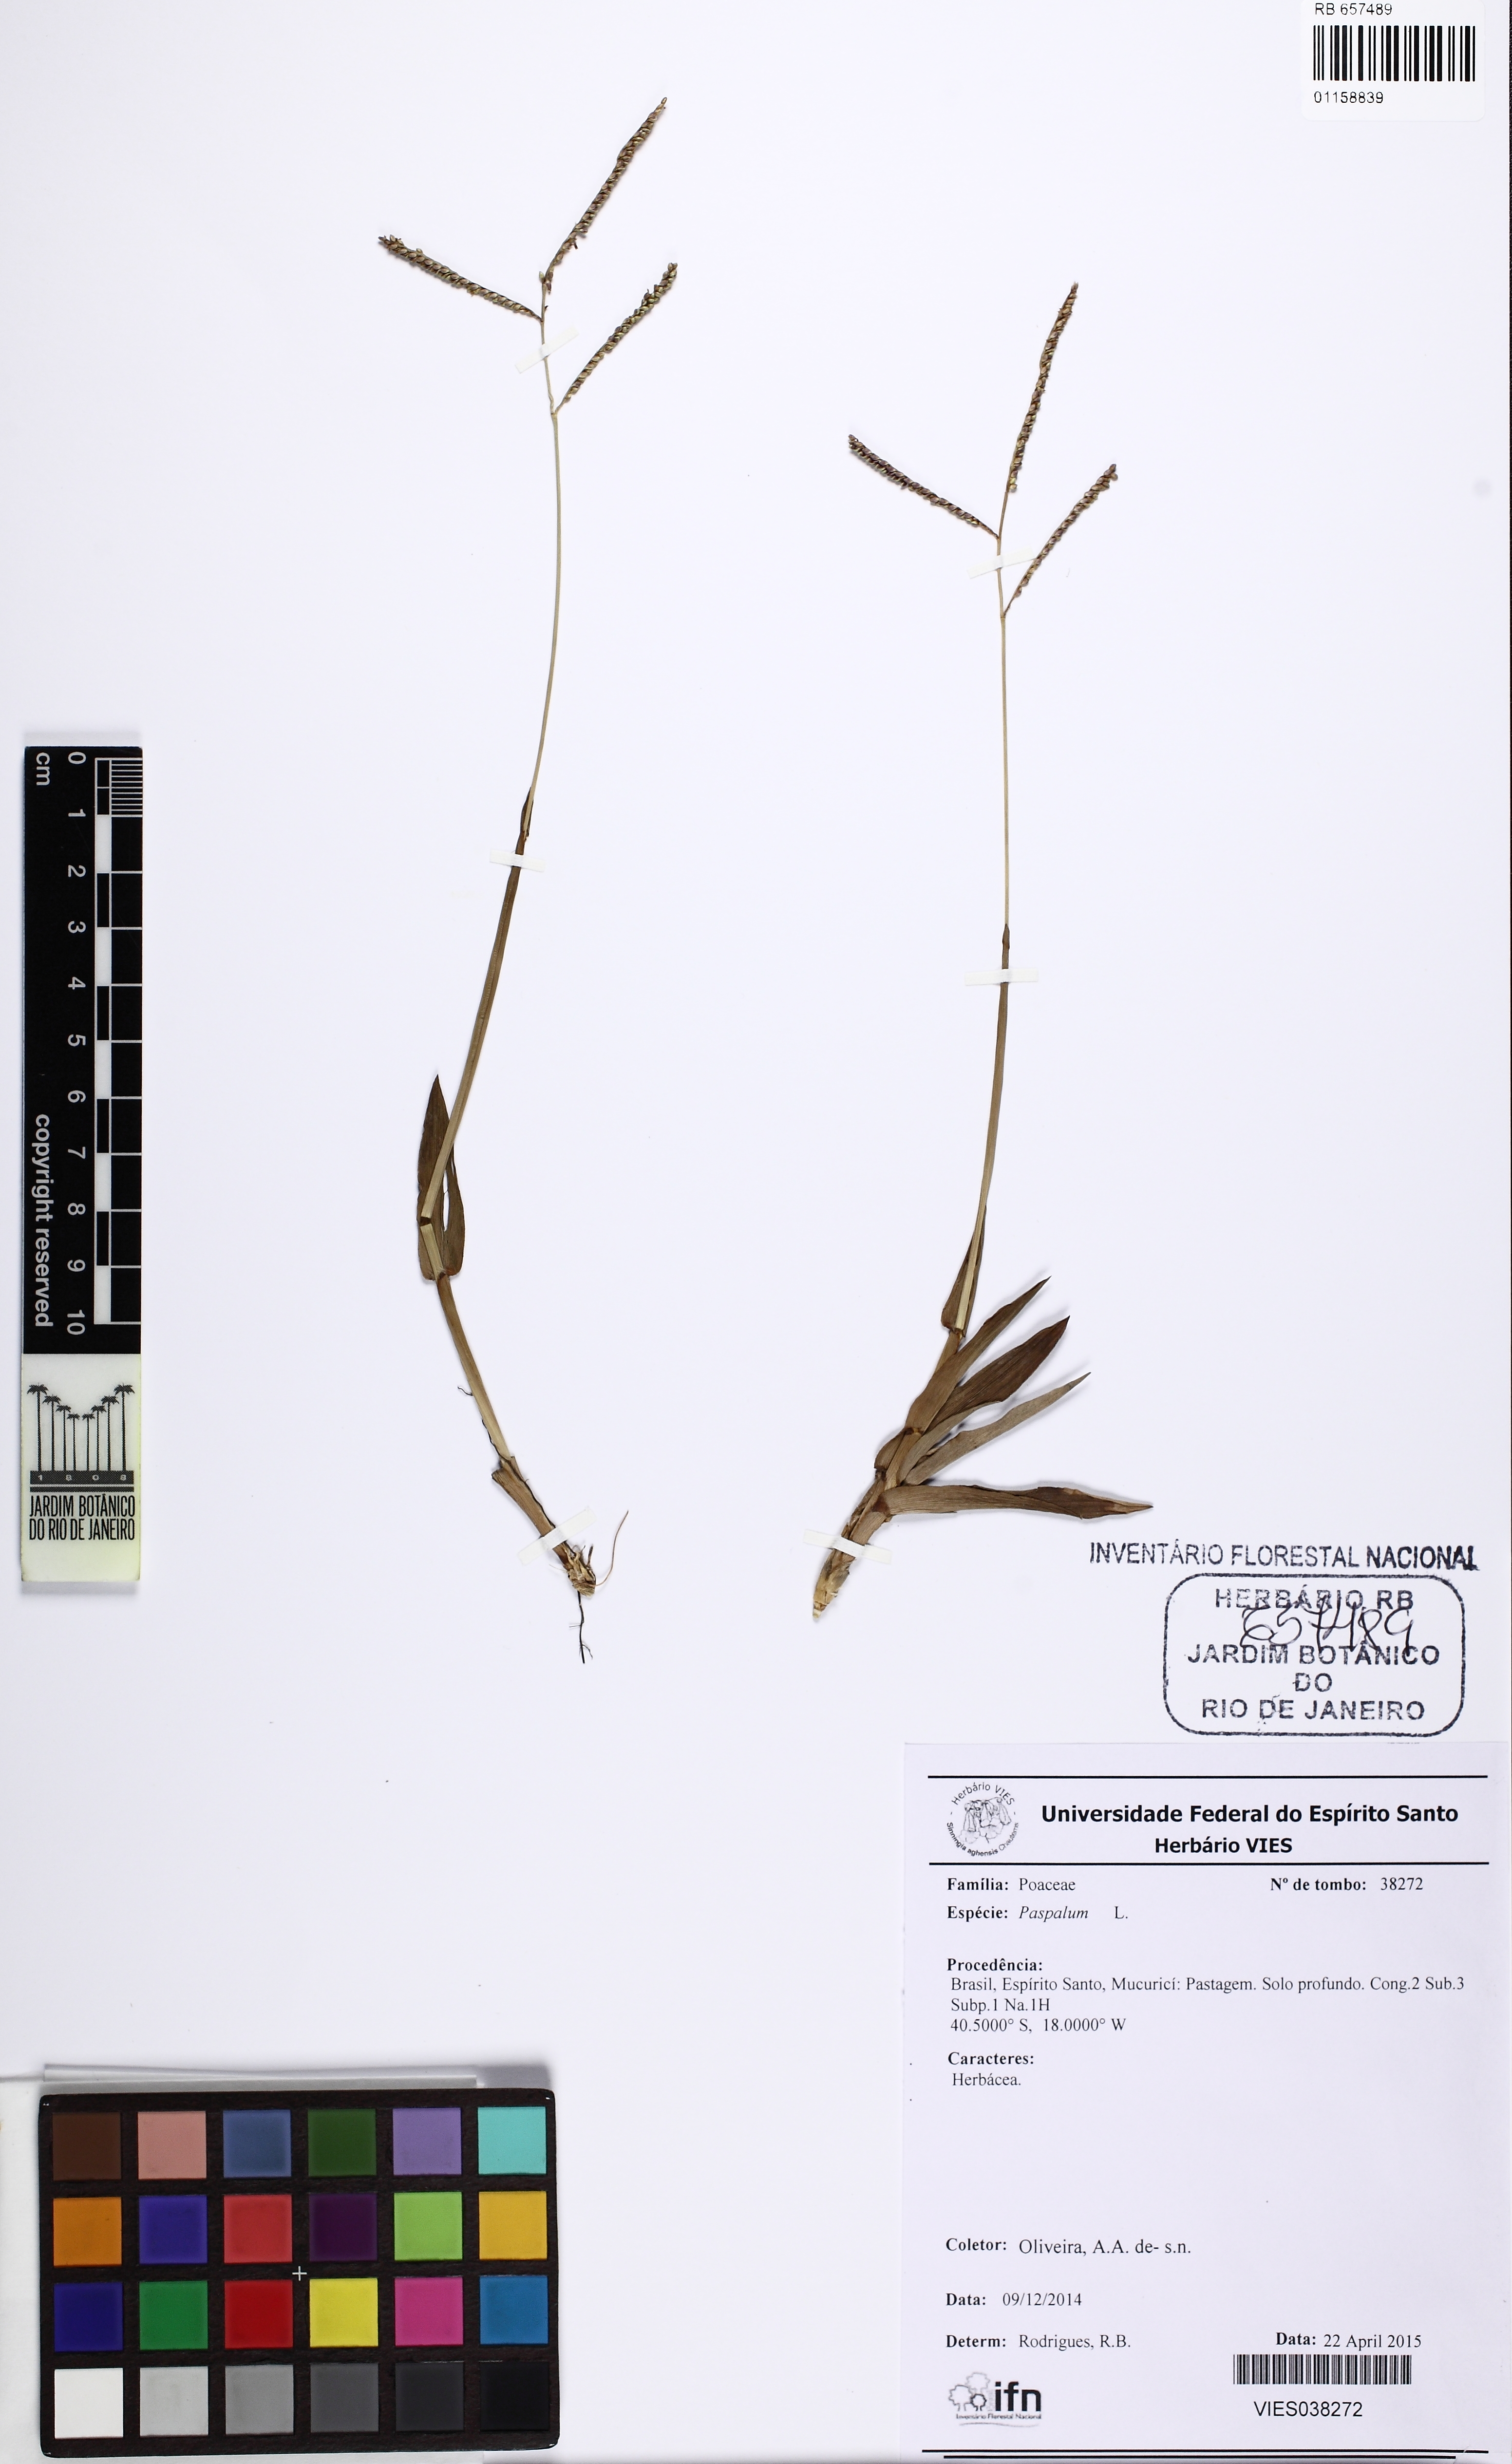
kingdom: Plantae
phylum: Tracheophyta
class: Liliopsida
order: Poales
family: Poaceae
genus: Paspalum
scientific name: Paspalum
